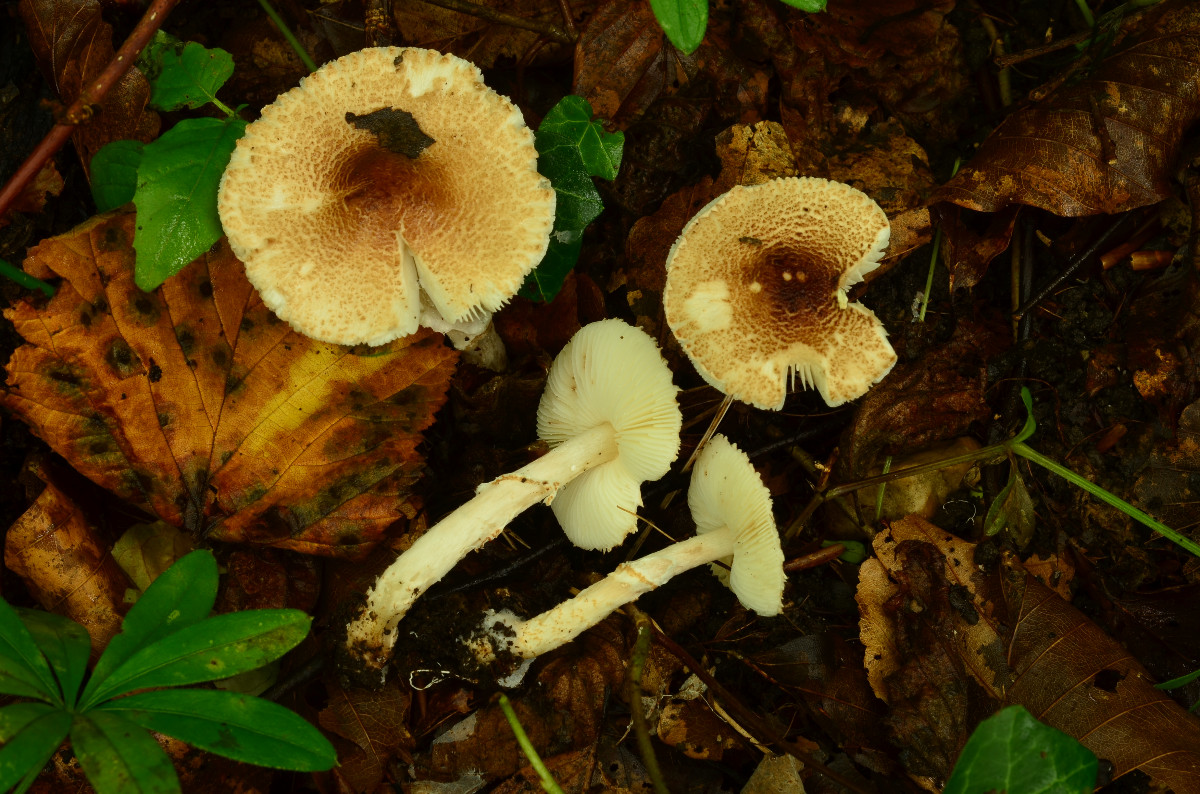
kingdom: Fungi
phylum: Basidiomycota
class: Agaricomycetes
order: Agaricales
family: Agaricaceae
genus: Lepiota
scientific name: Lepiota subgracilis
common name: elegant parasolhat
